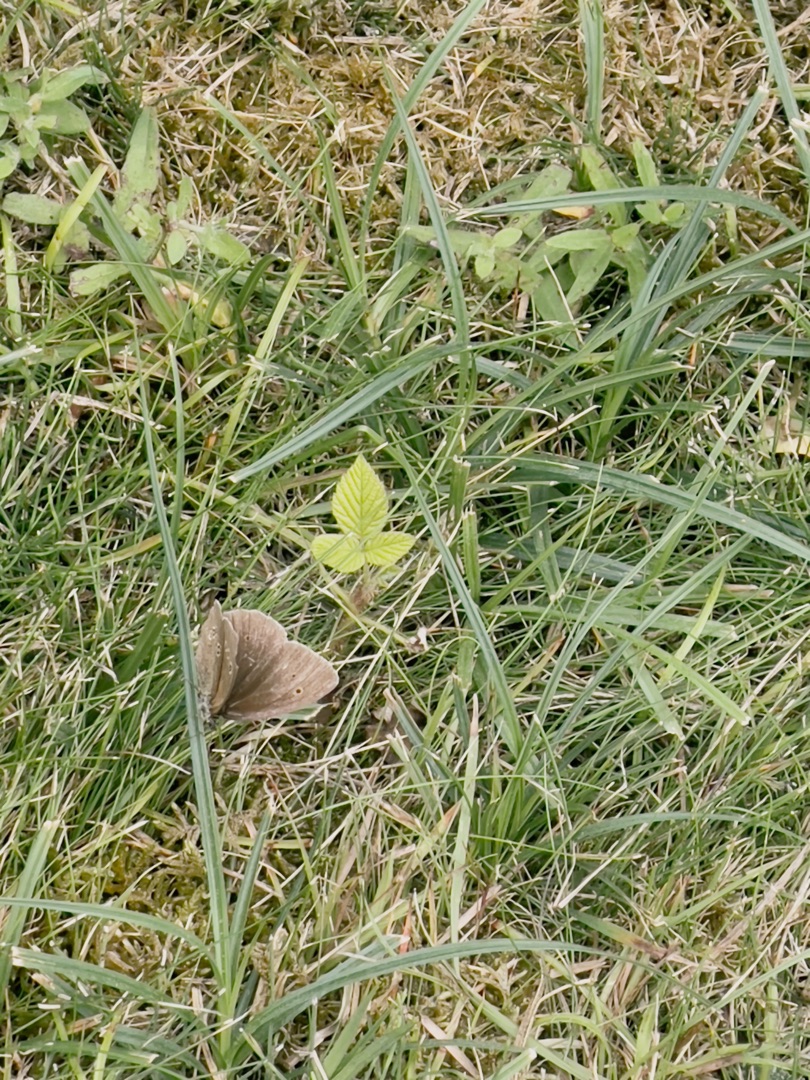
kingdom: Animalia
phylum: Arthropoda
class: Insecta
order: Lepidoptera
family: Nymphalidae
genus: Aphantopus
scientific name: Aphantopus hyperantus
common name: Engrandøje
